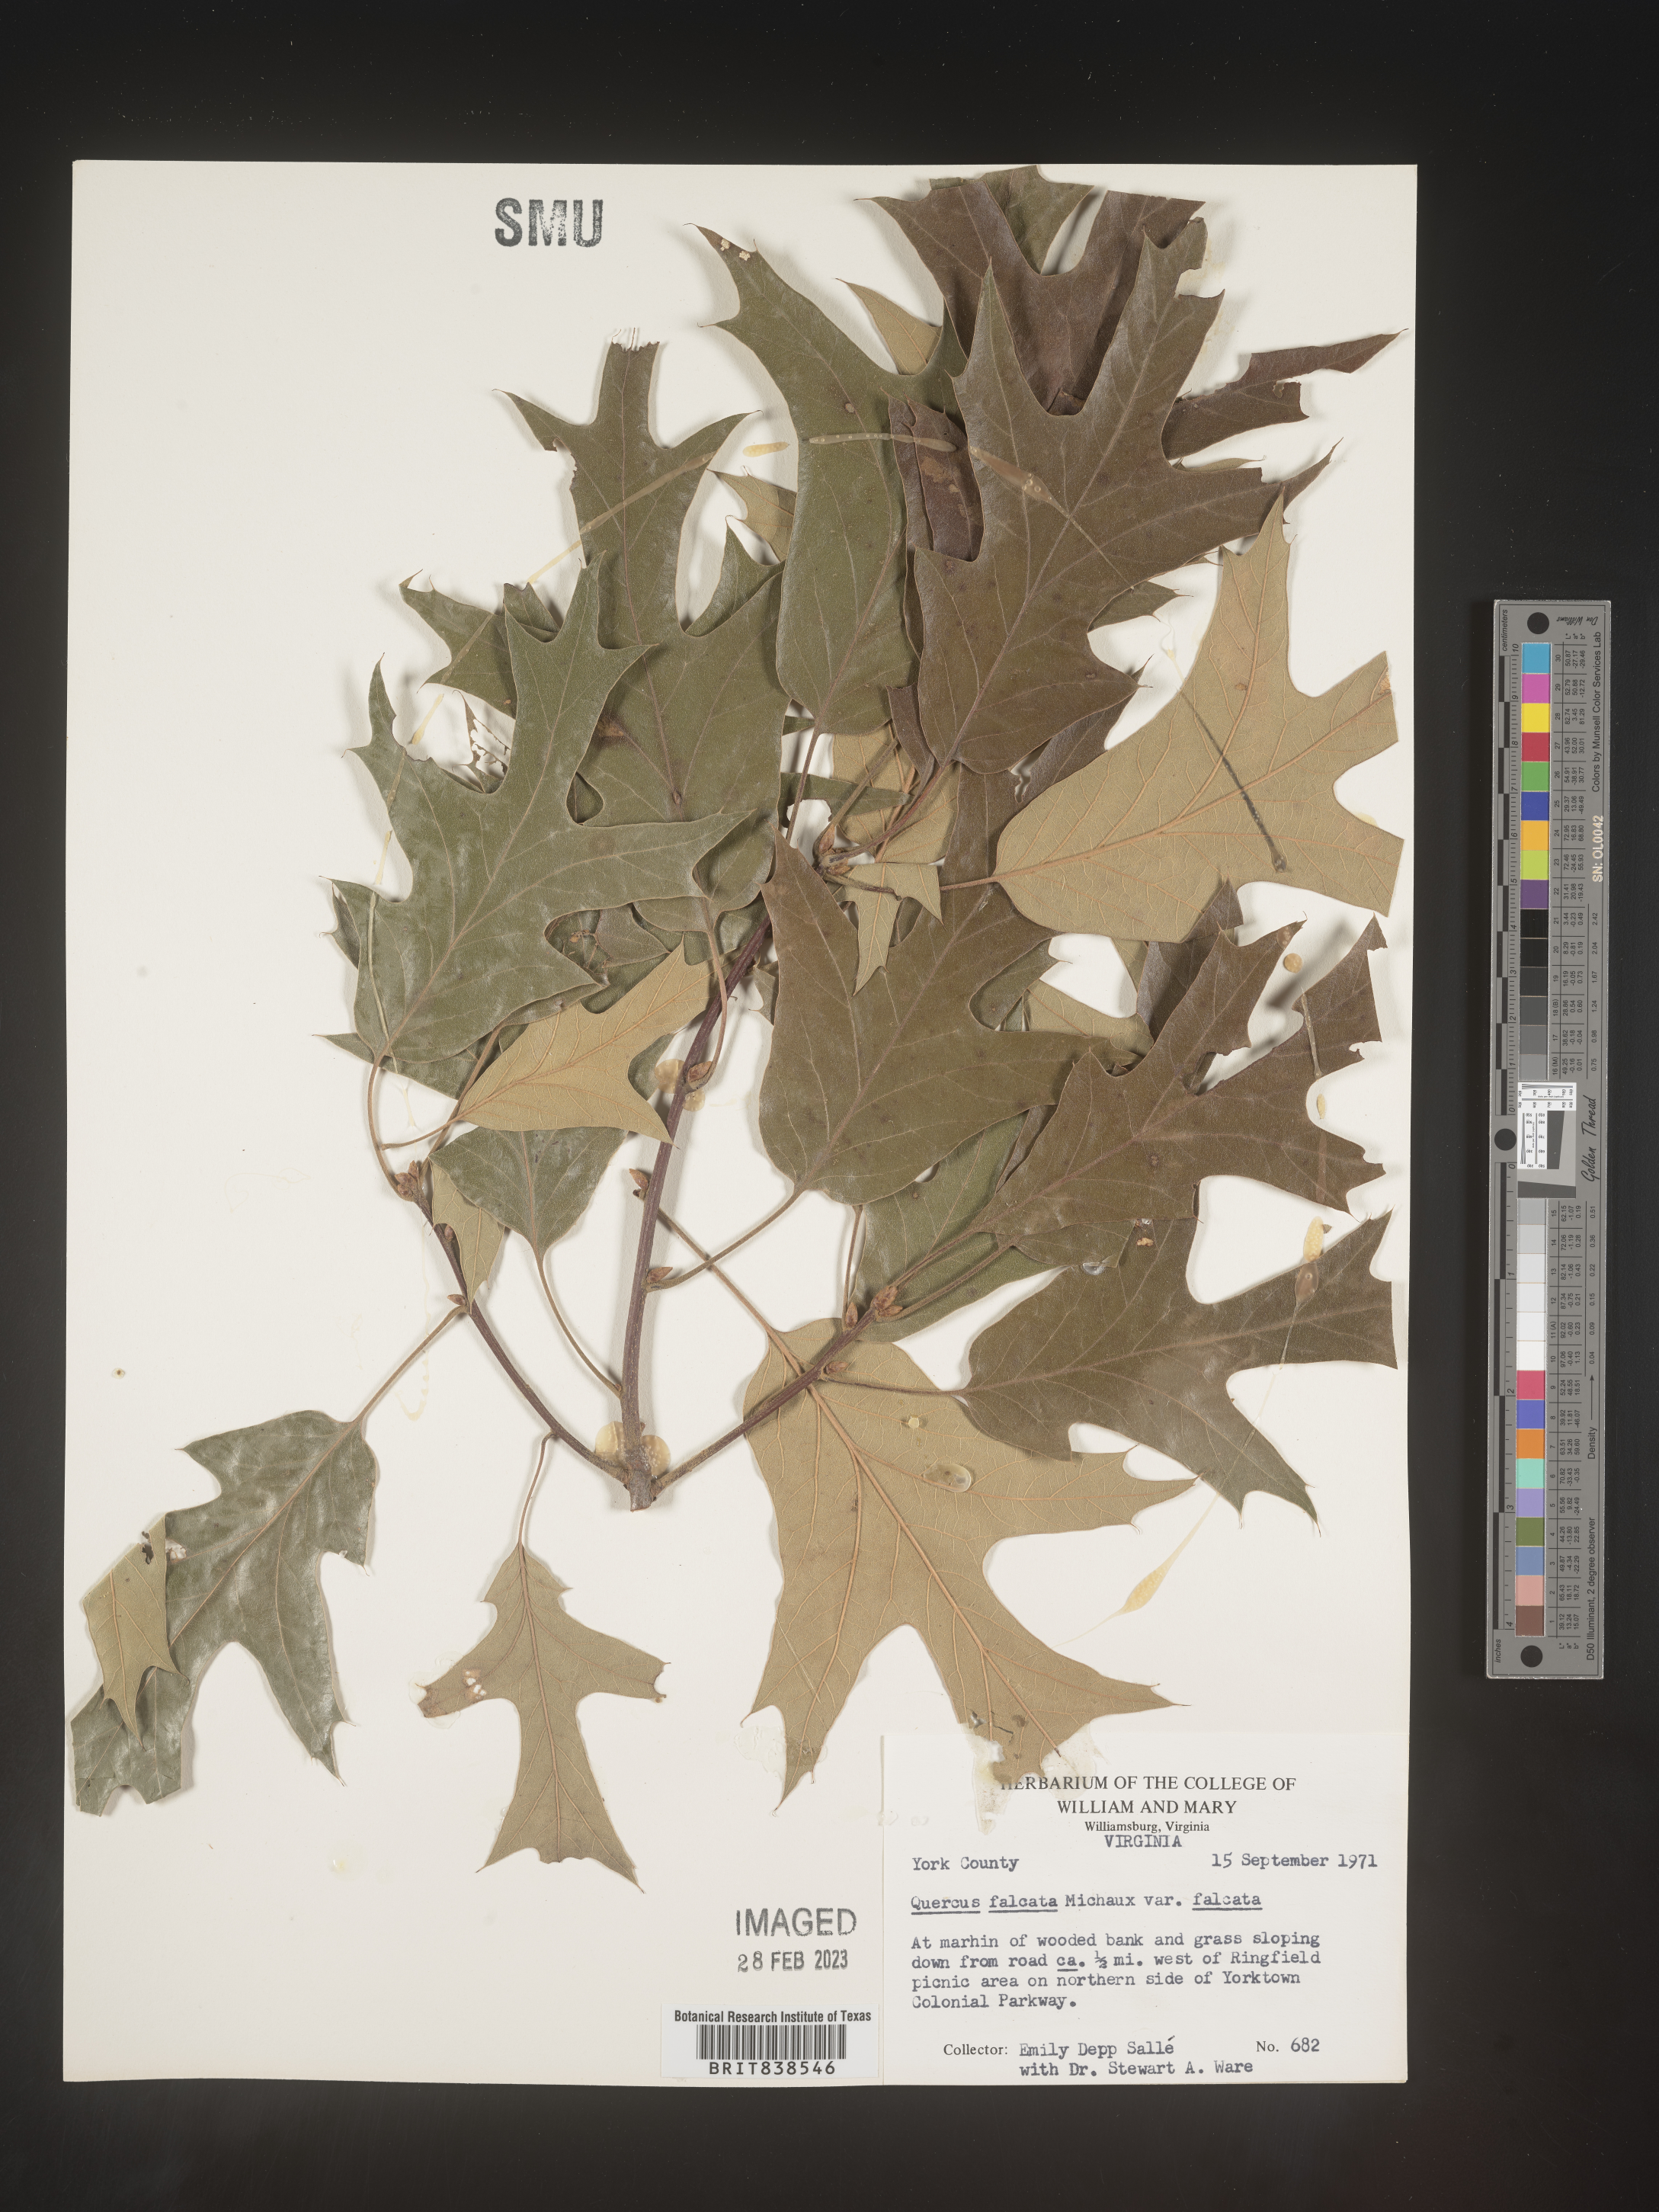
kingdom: Plantae
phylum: Tracheophyta
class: Magnoliopsida
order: Fagales
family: Fagaceae
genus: Quercus
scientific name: Quercus falcata
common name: Southern red oak
